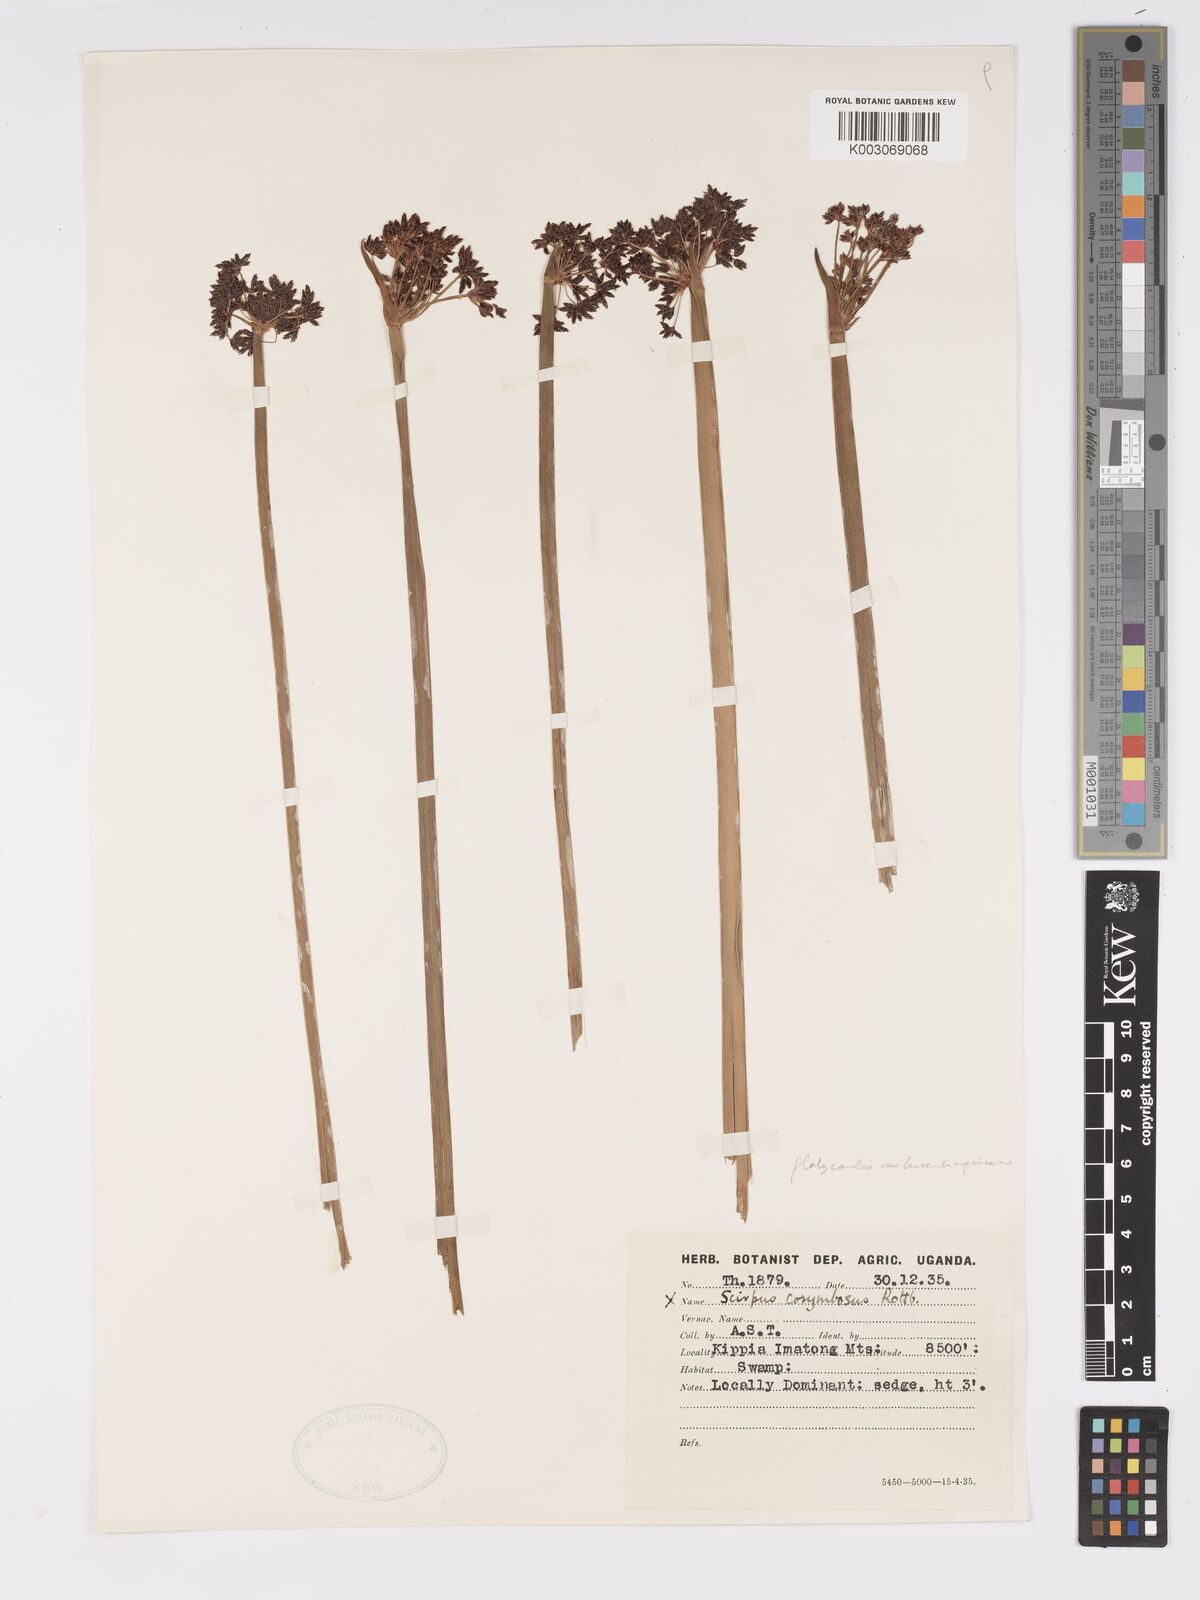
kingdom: Plantae
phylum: Tracheophyta
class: Liliopsida
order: Poales
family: Cyperaceae
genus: Cyperus
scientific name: Cyperus platycaulis
